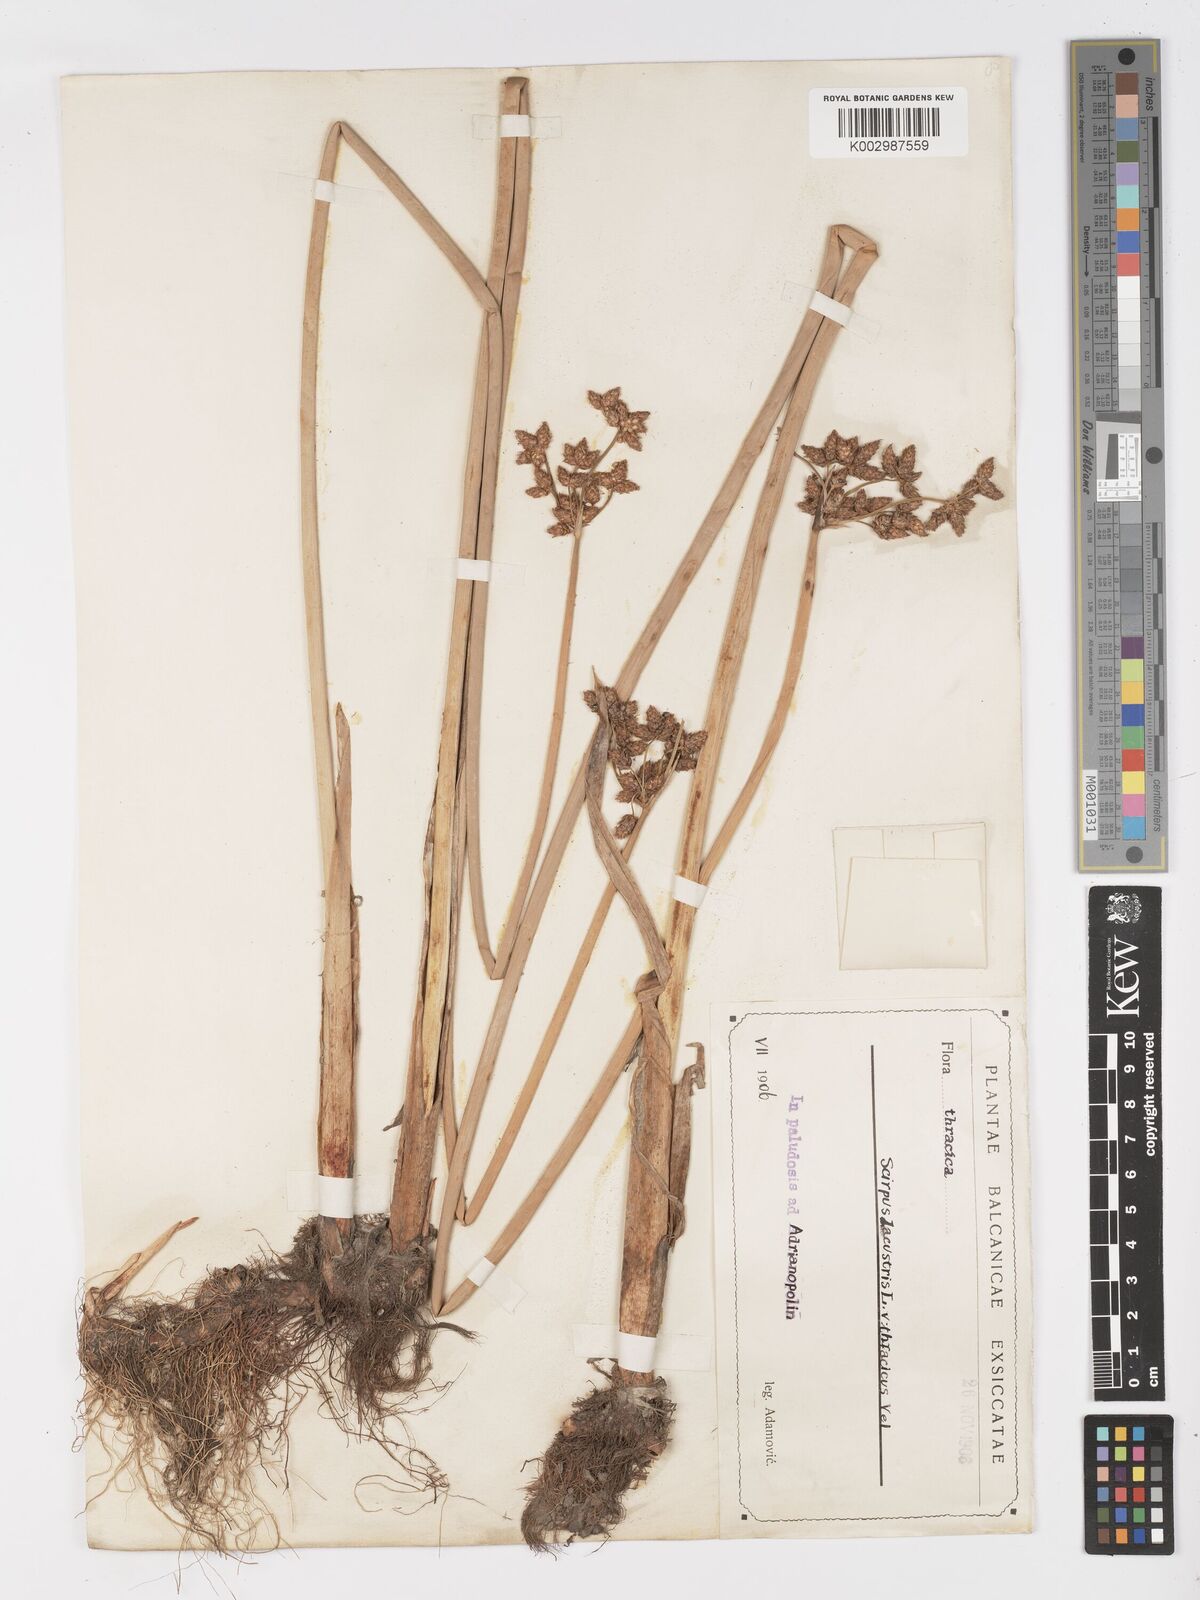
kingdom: Plantae
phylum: Tracheophyta
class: Liliopsida
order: Poales
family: Cyperaceae
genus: Schoenoplectus
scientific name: Schoenoplectus lacustris
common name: Common club-rush
